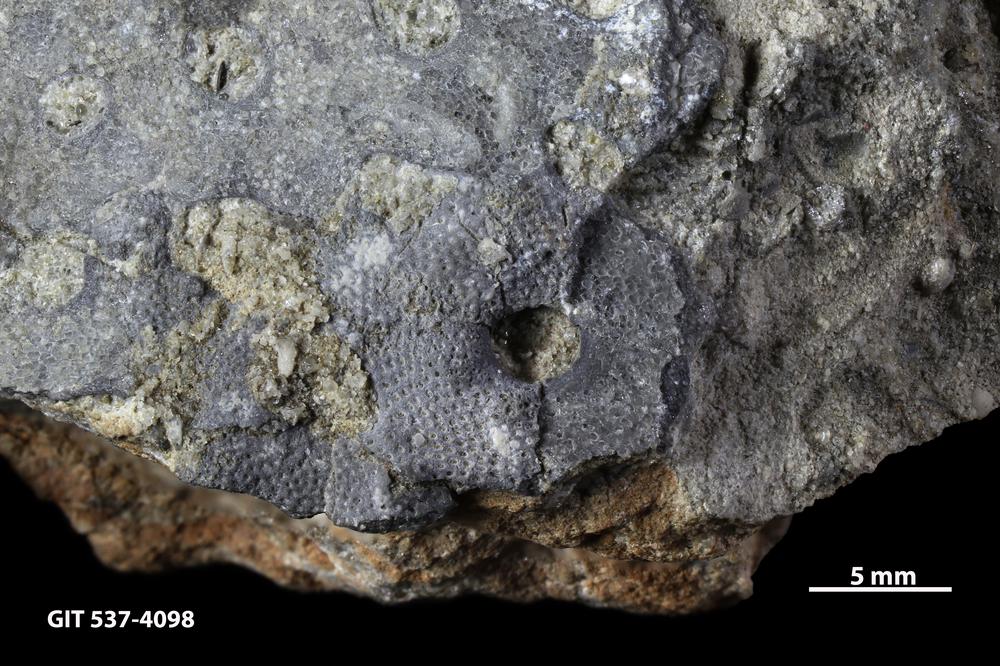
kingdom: Animalia
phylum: Bryozoa
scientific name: Bryozoa
